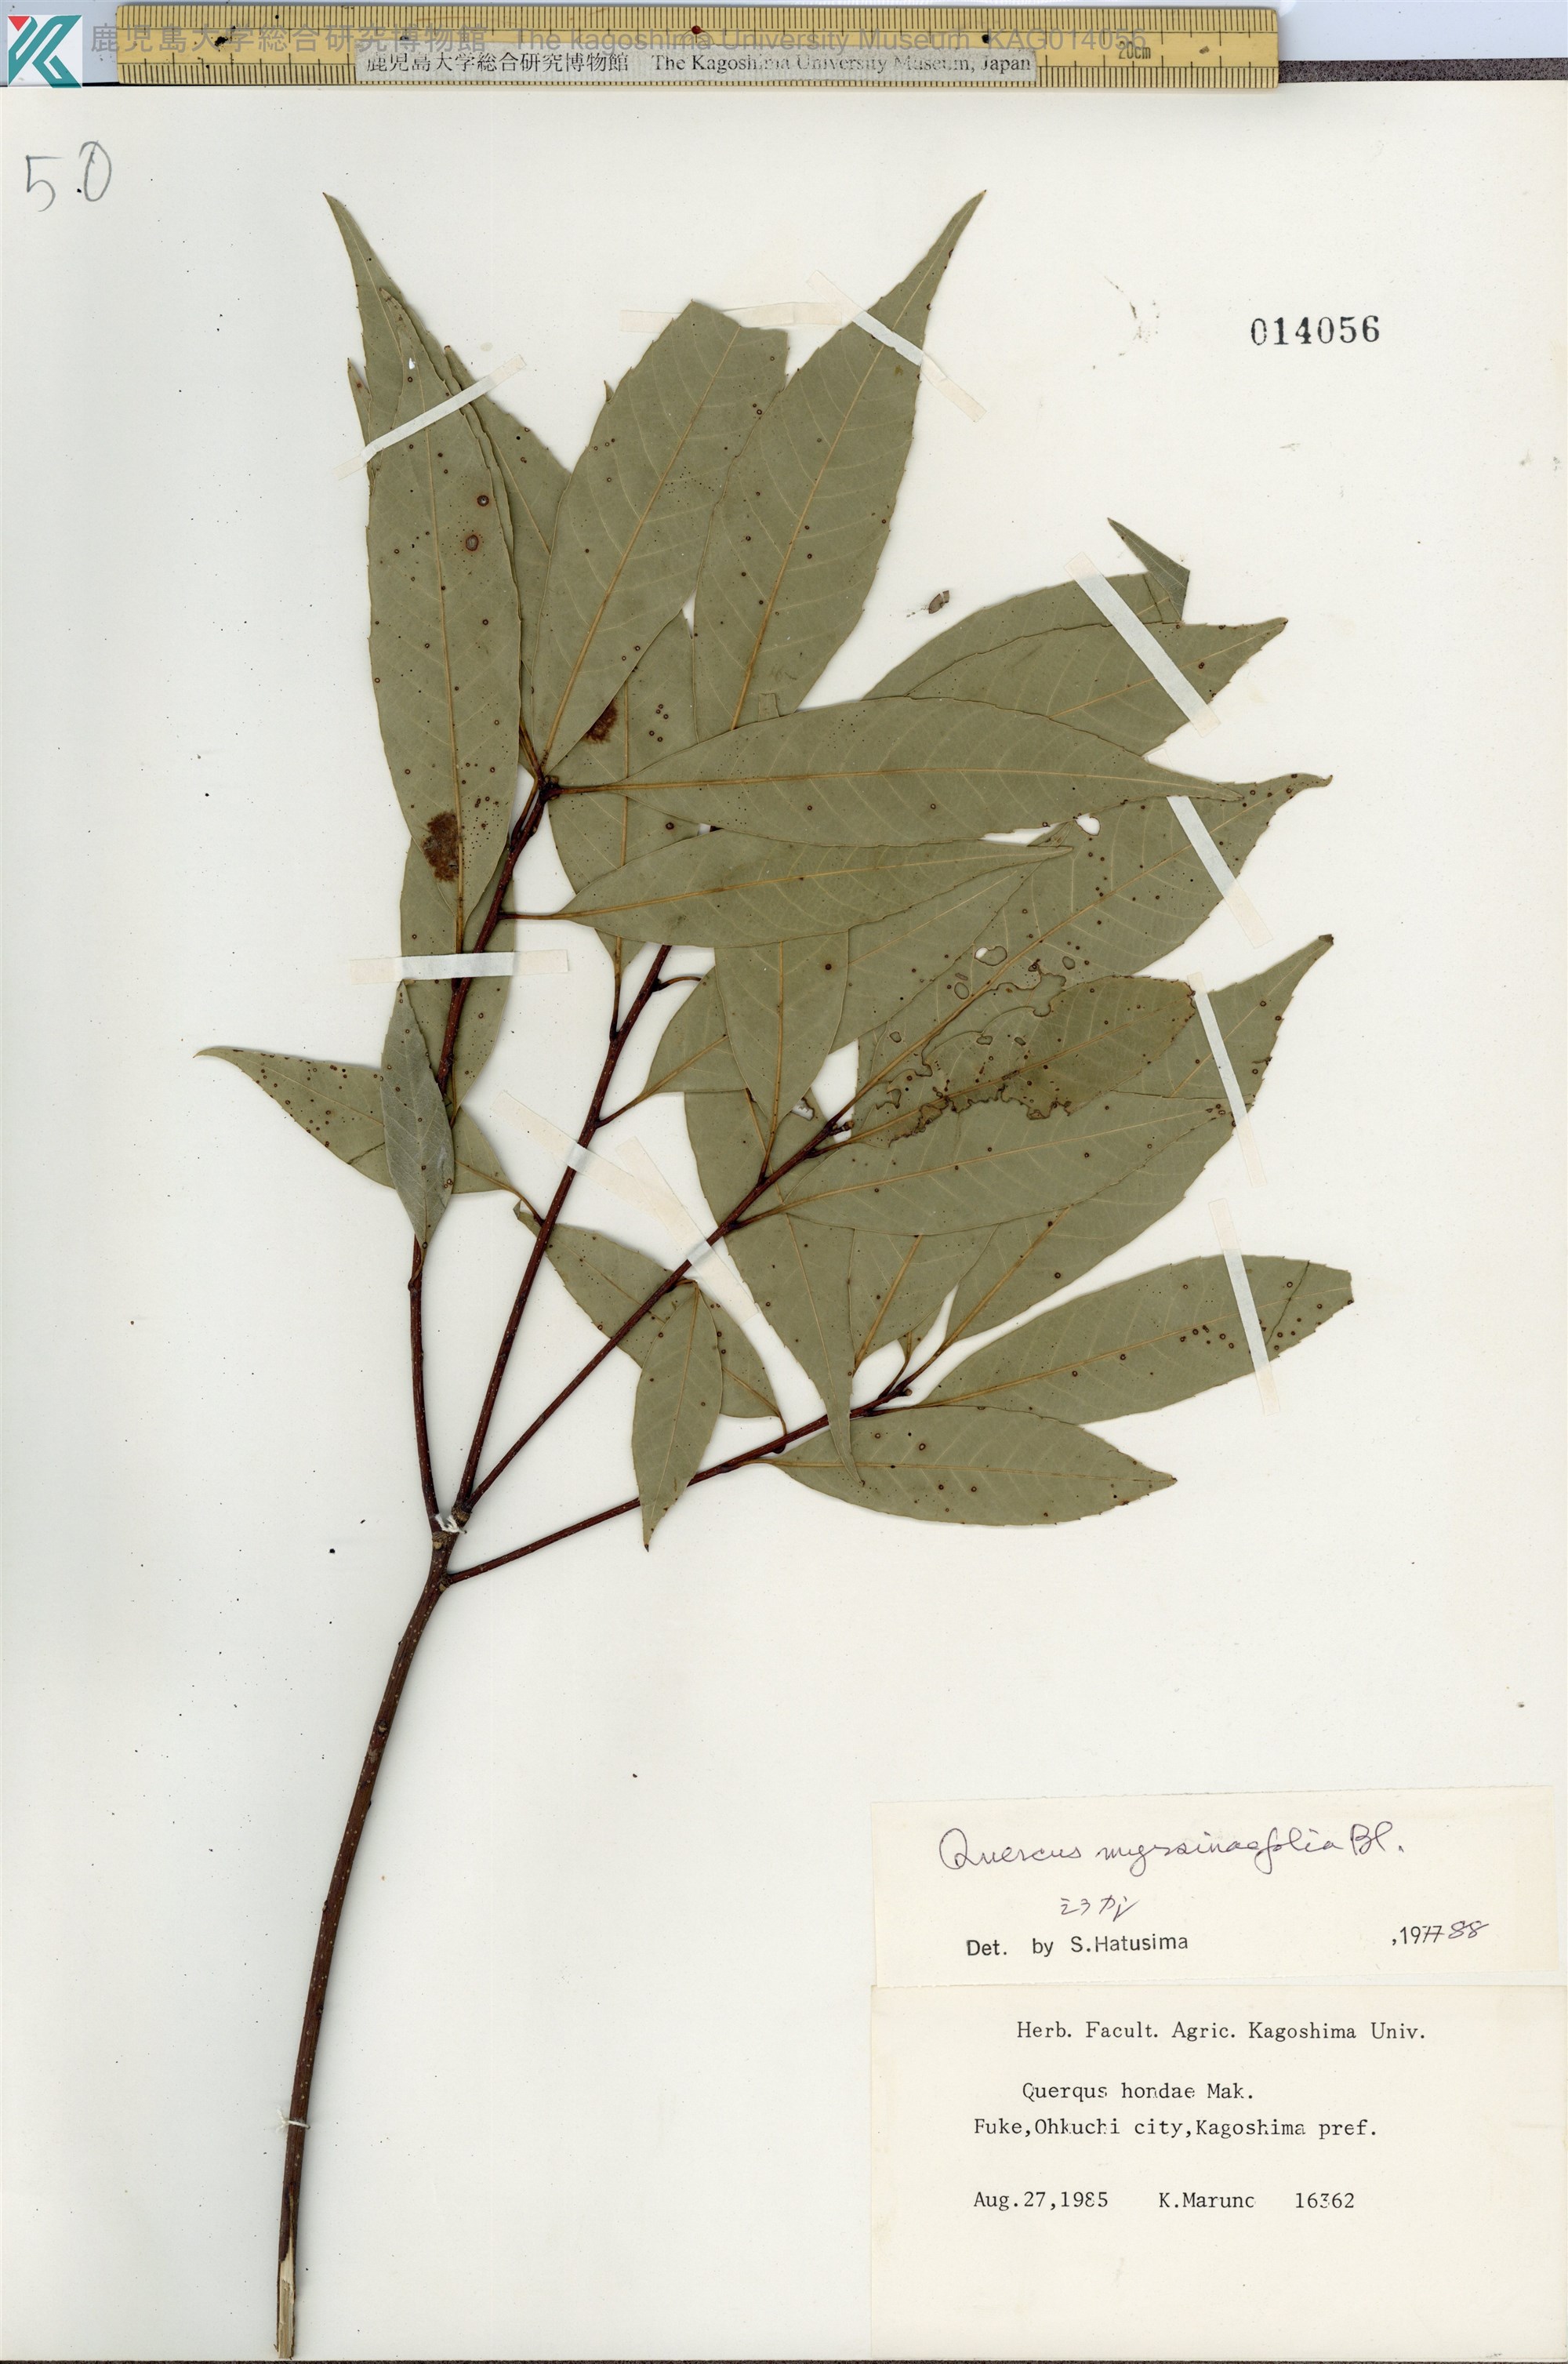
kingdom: Plantae
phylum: Tracheophyta
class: Magnoliopsida
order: Fagales
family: Fagaceae
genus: Quercus
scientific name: Quercus myrsinaefolia
